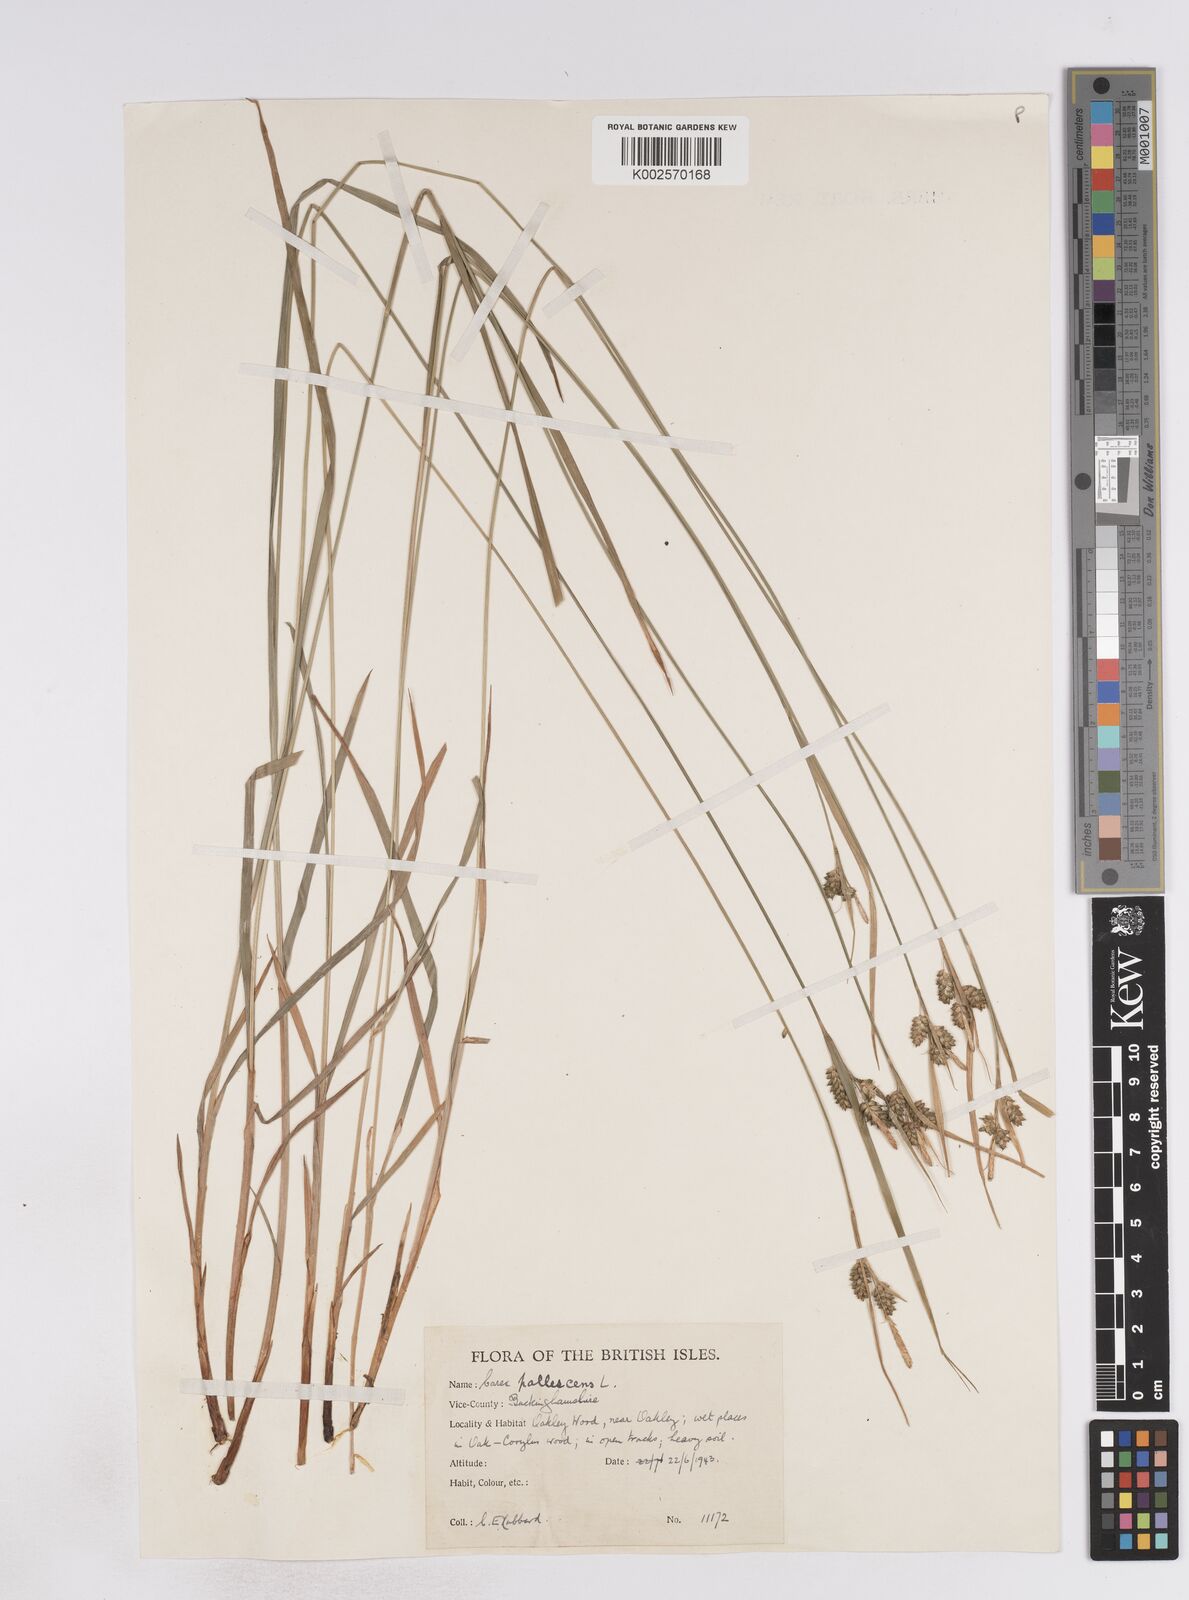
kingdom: Plantae
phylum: Tracheophyta
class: Liliopsida
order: Poales
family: Cyperaceae
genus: Carex
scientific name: Carex pallescens
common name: Pale sedge
